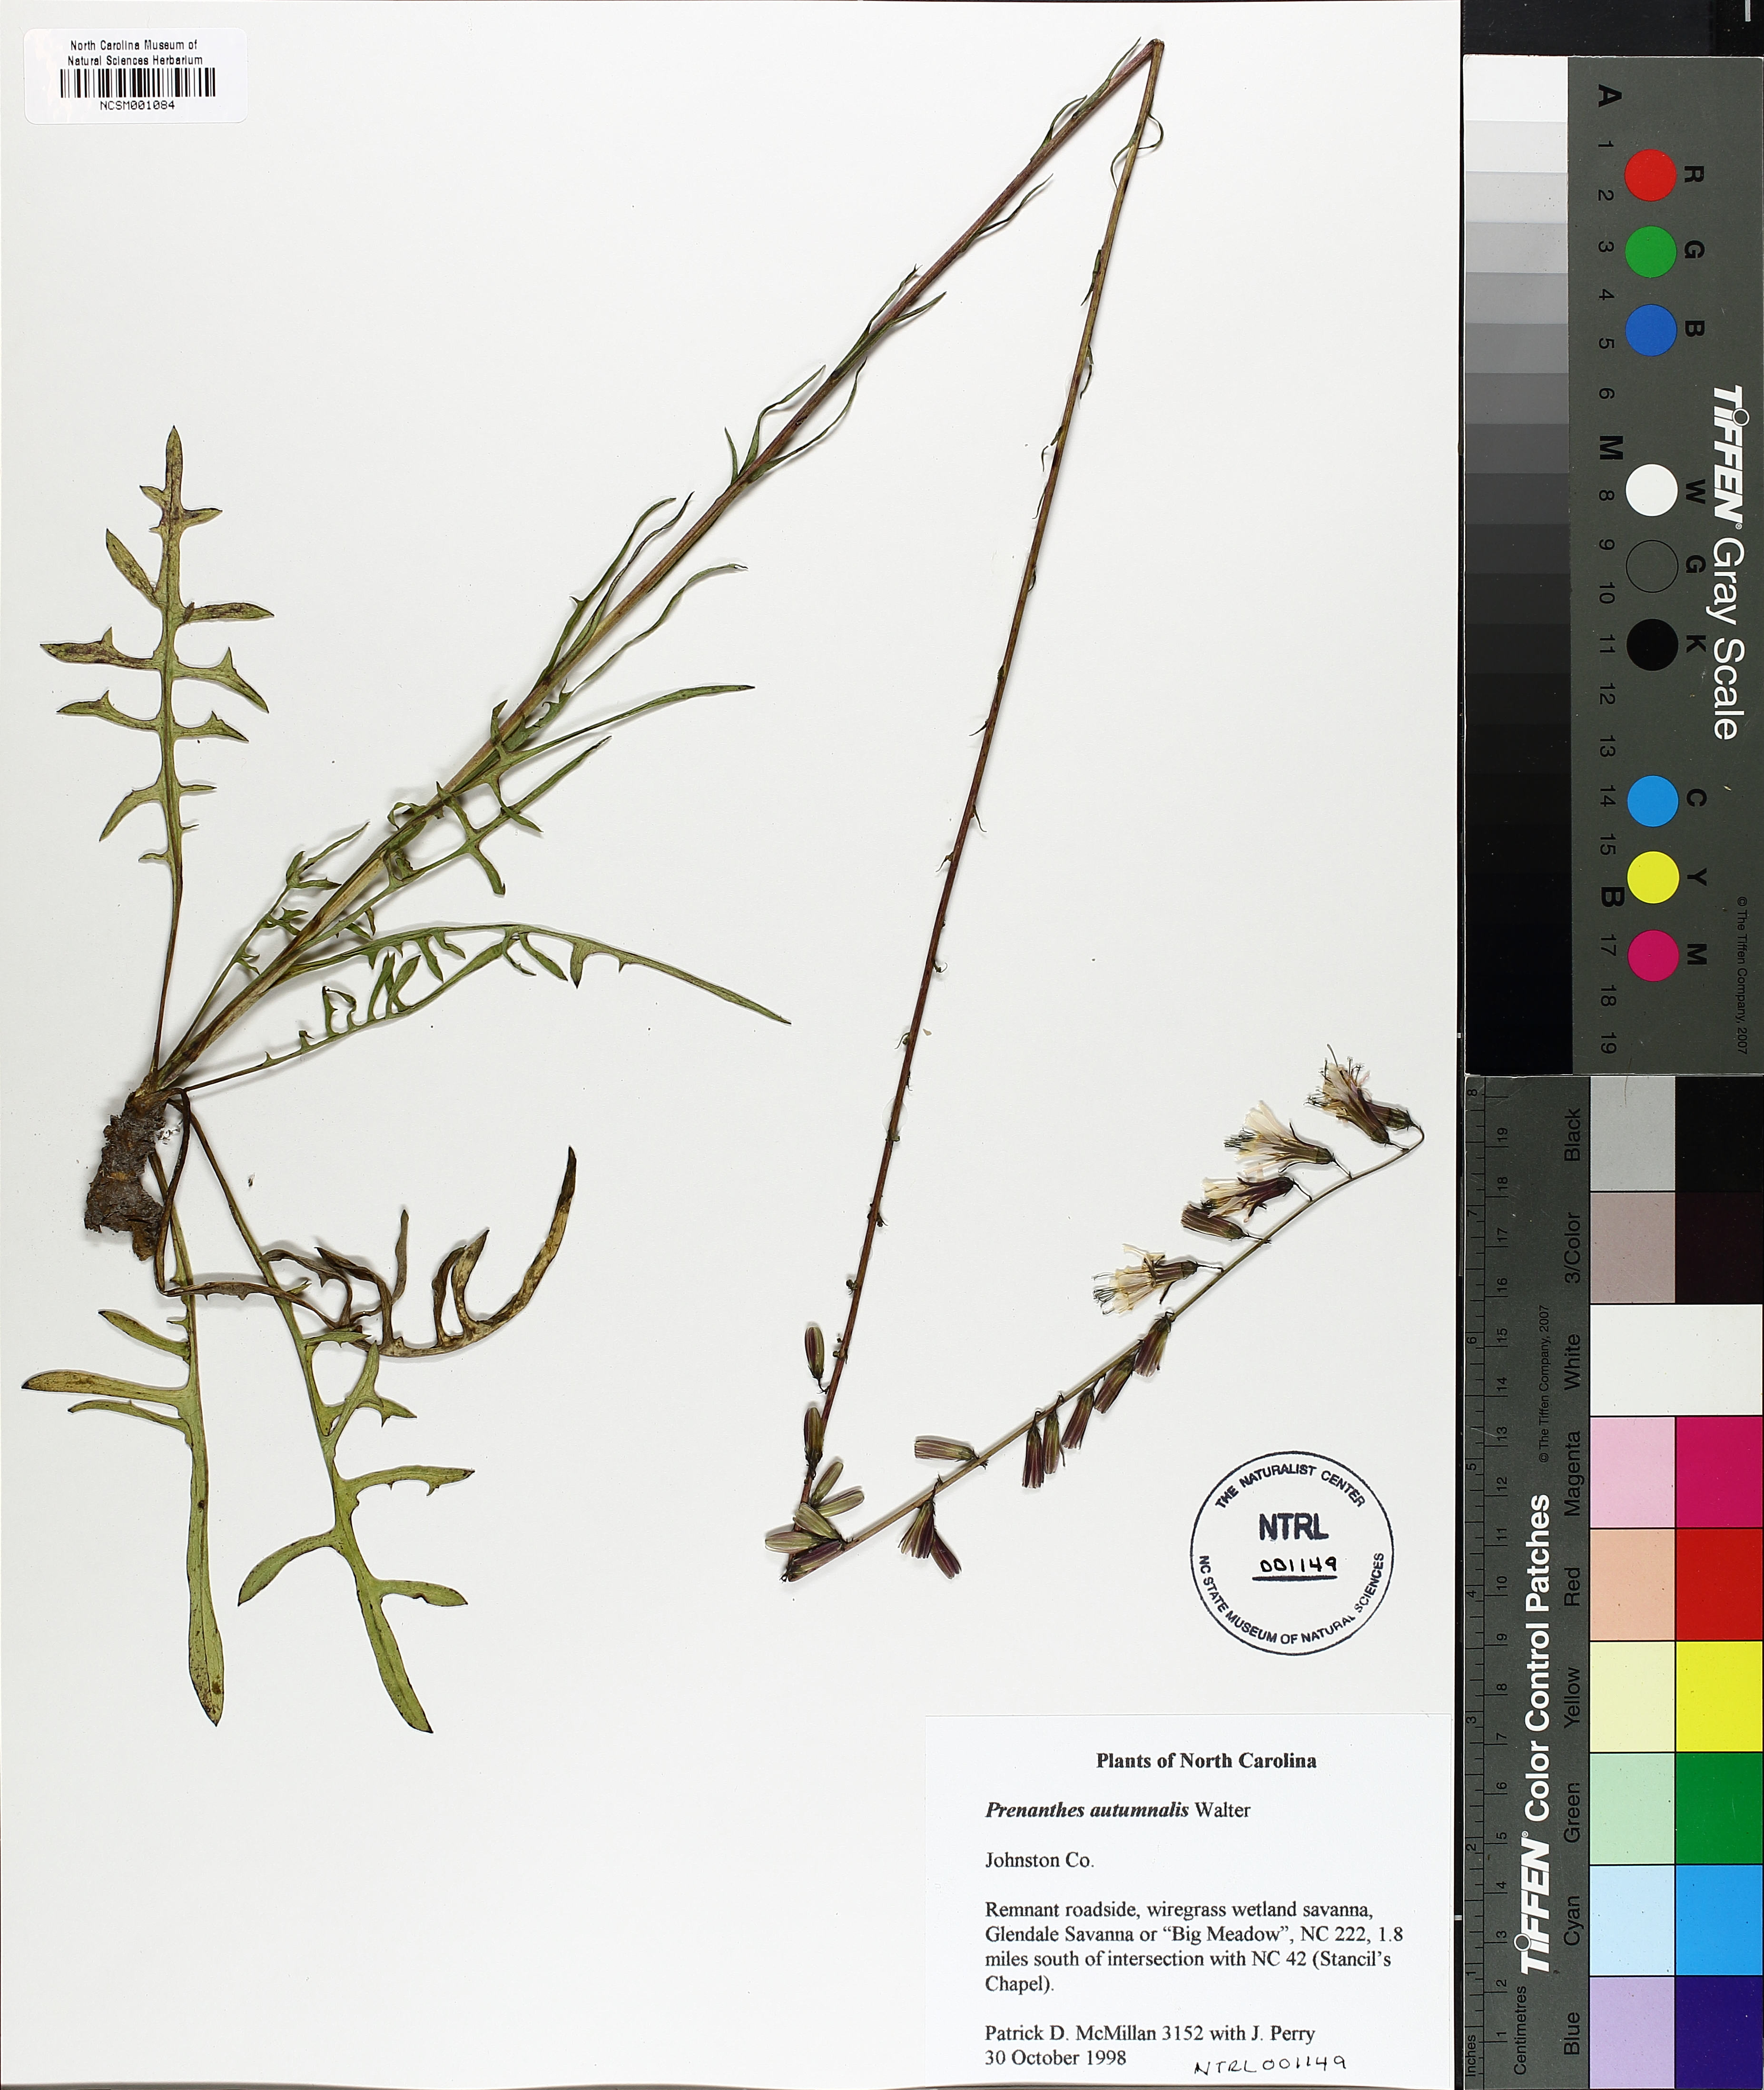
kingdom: Plantae
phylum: Tracheophyta
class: Magnoliopsida
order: Asterales
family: Asteraceae
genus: Nabalus
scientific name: Nabalus autumnalis
